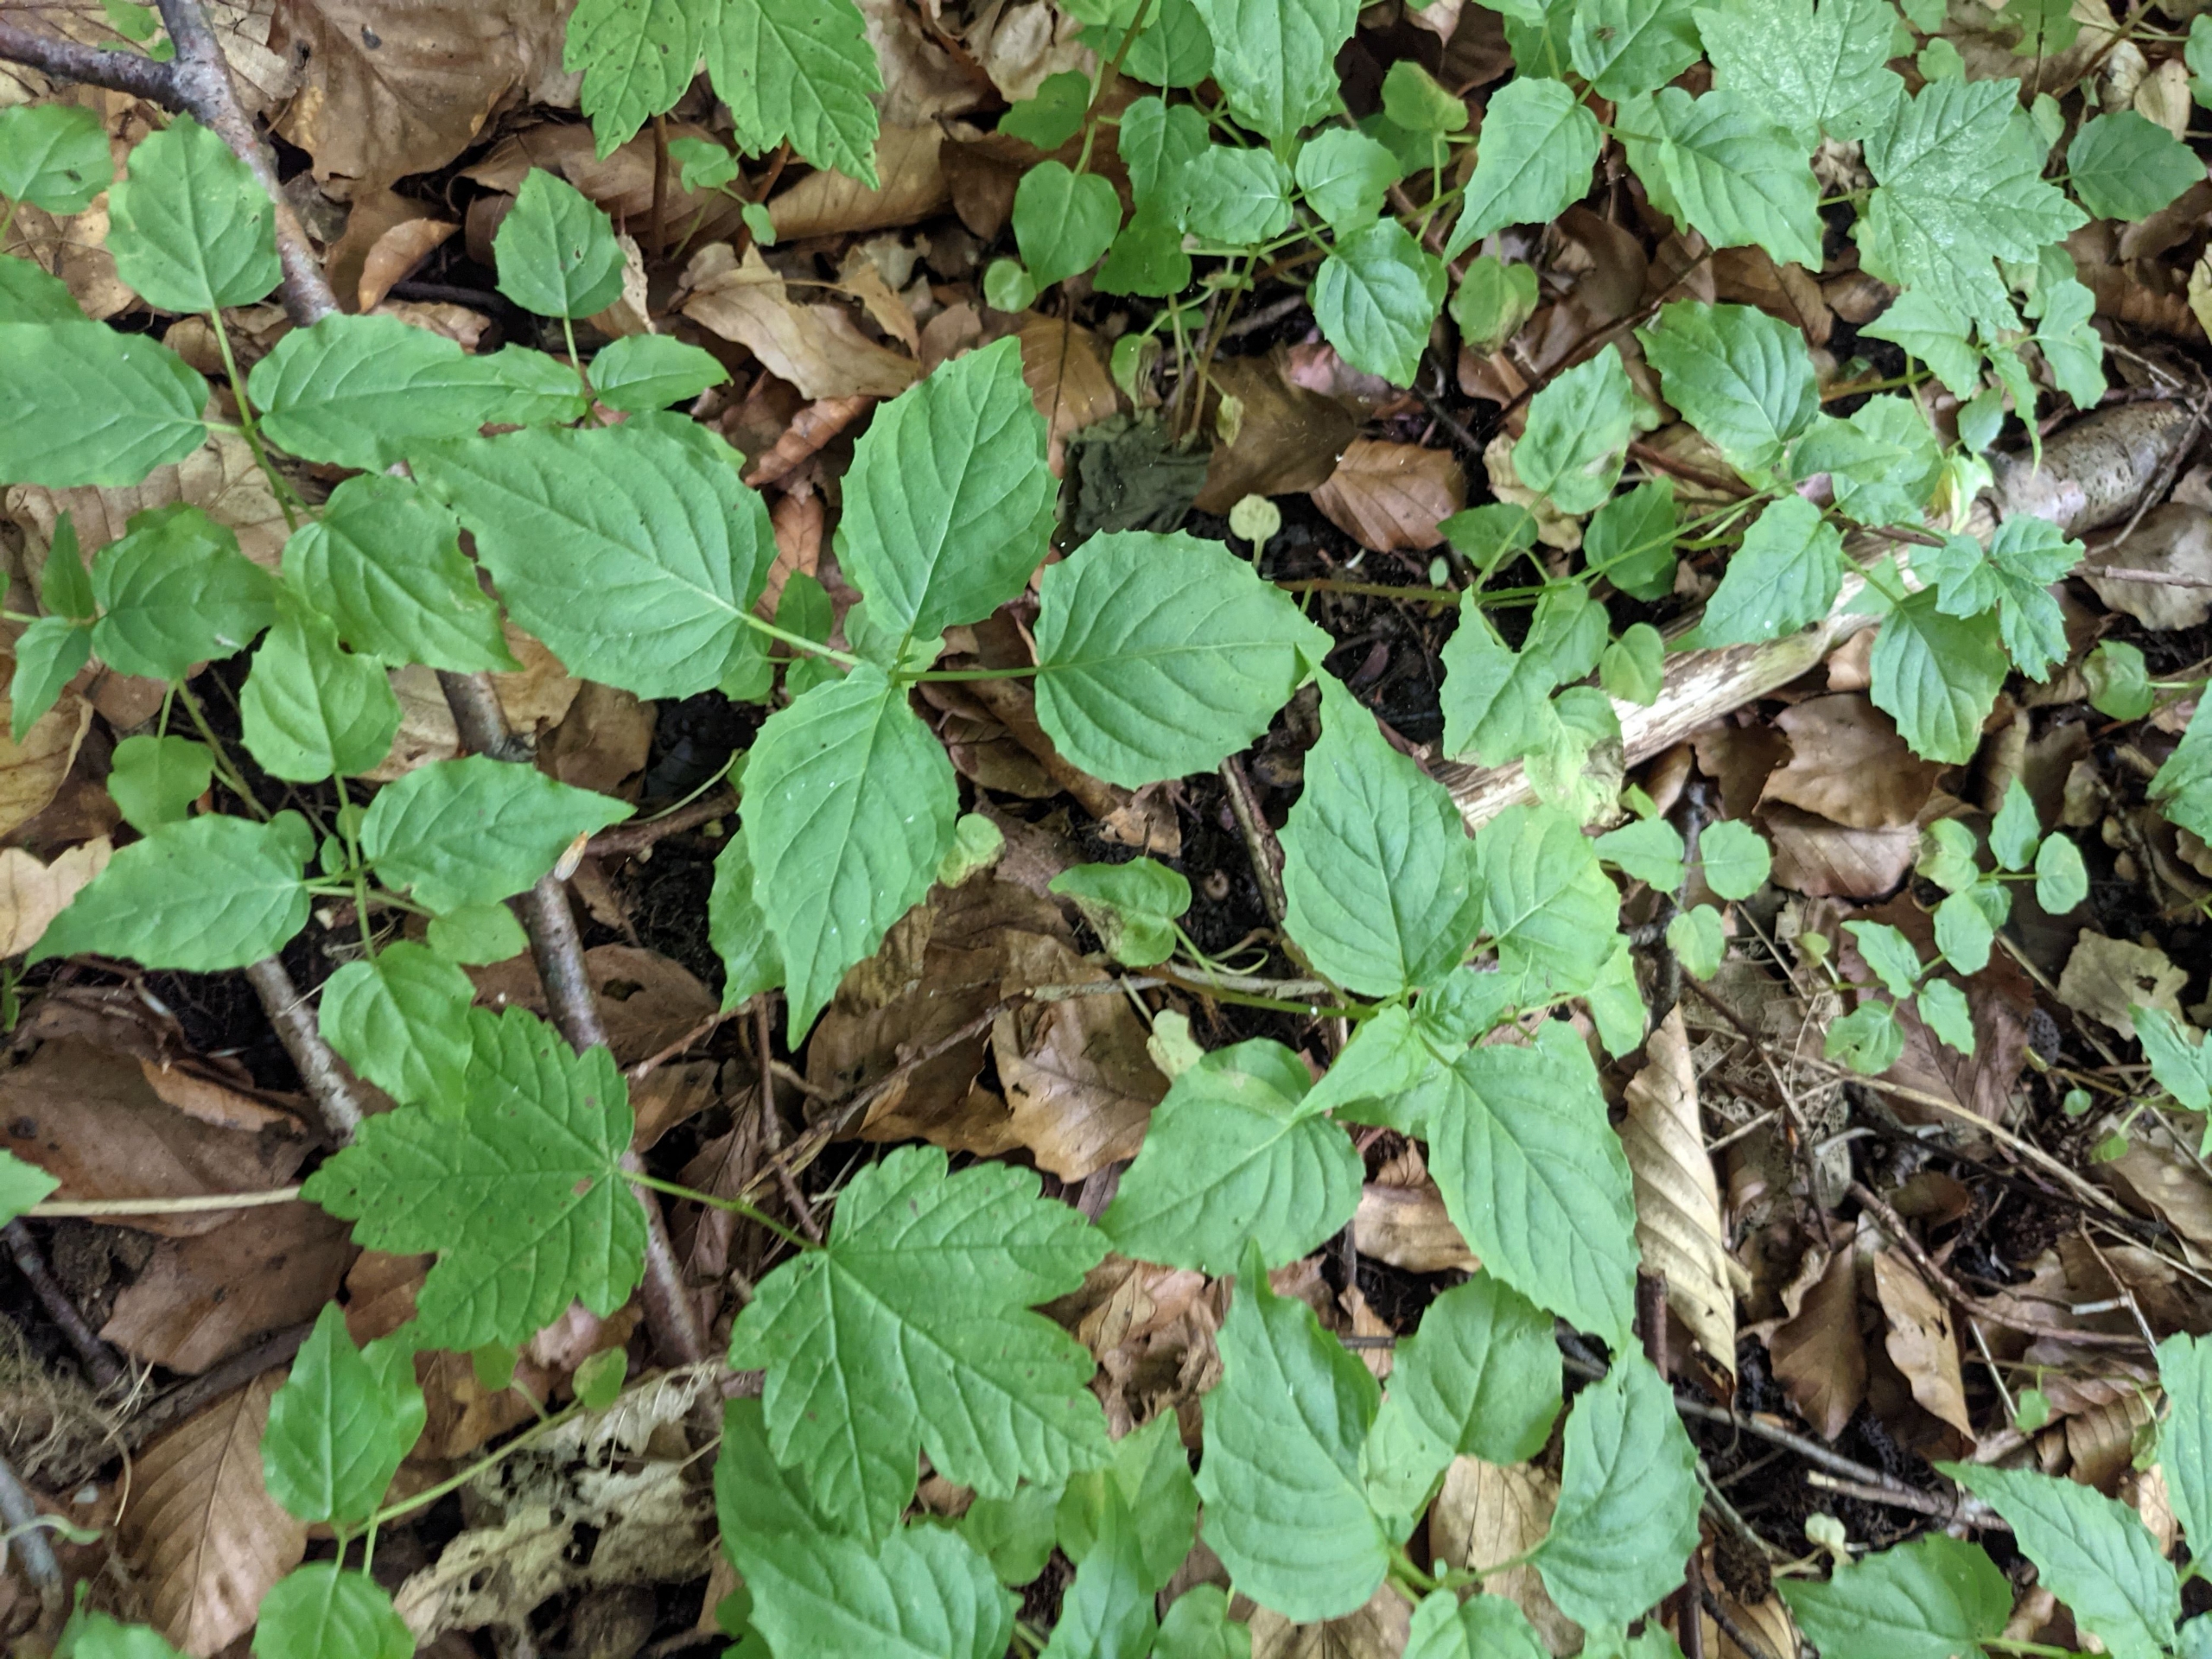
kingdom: Plantae
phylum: Tracheophyta
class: Magnoliopsida
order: Myrtales
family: Onagraceae
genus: Circaea
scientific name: Circaea intermedia
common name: Spidsbladet steffensurt
